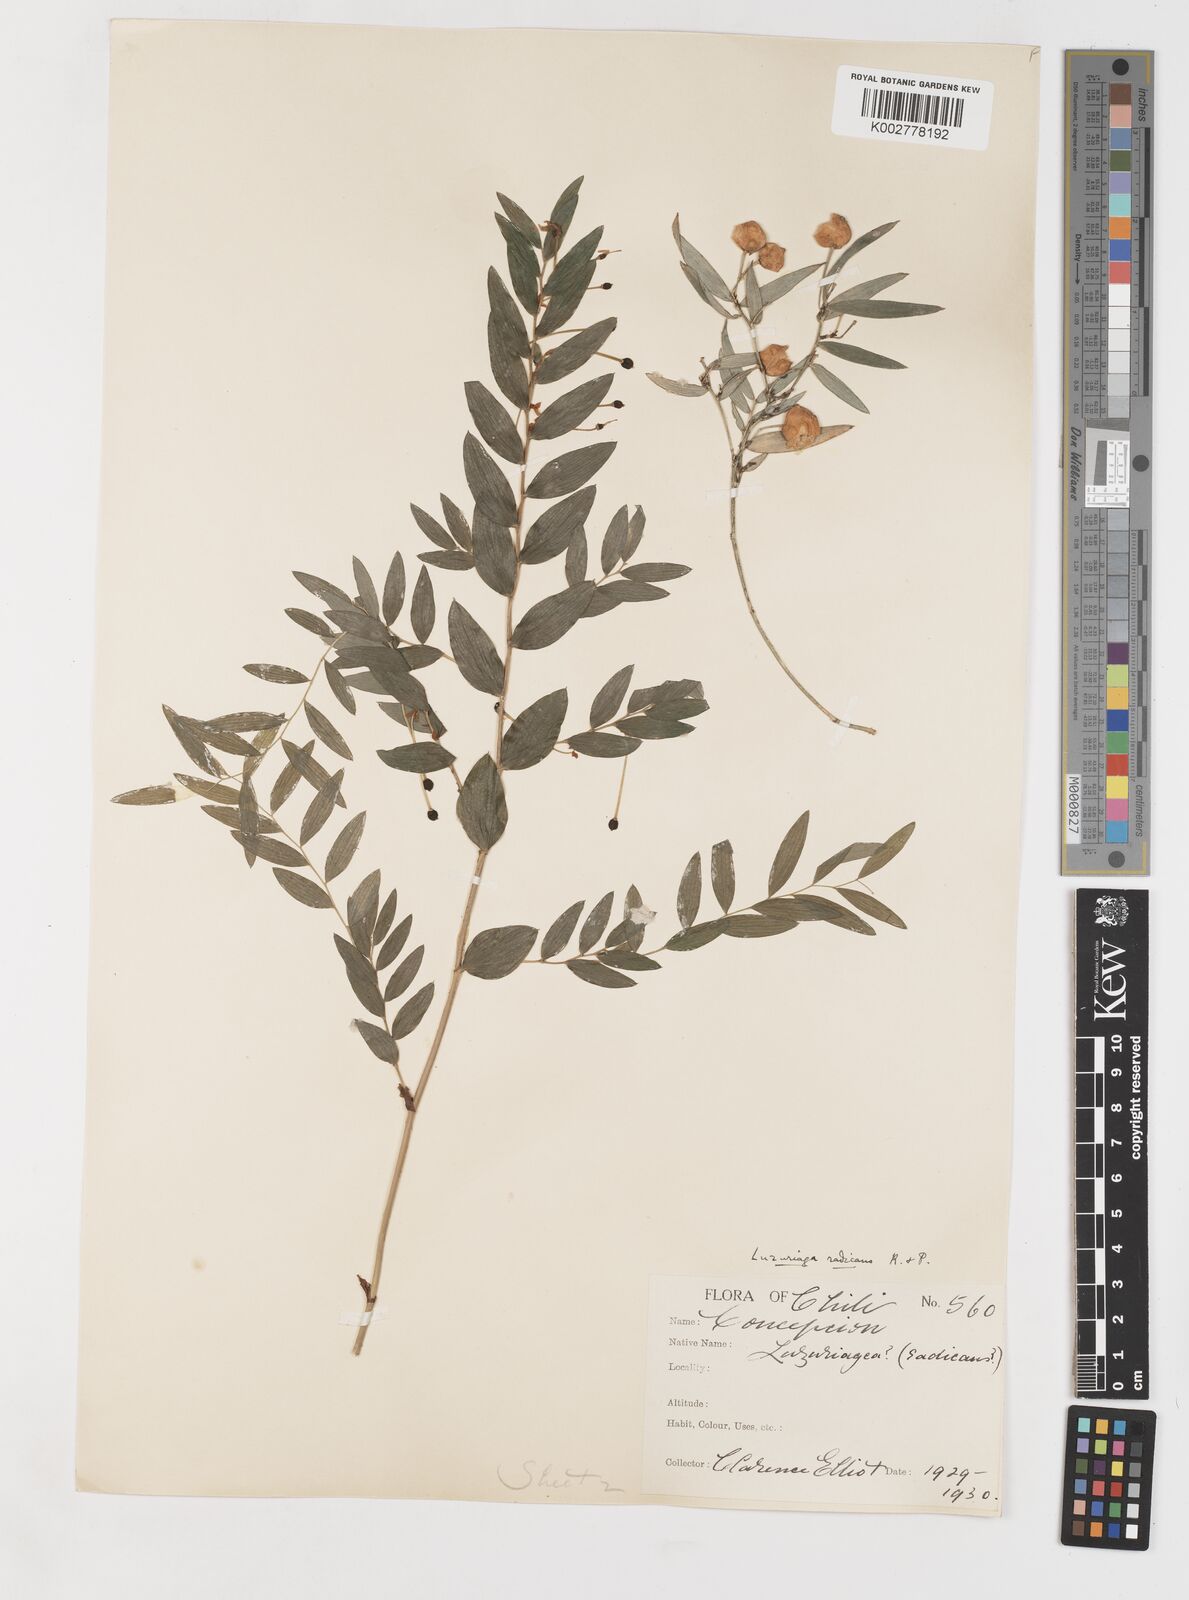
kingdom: Plantae
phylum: Tracheophyta
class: Liliopsida
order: Liliales
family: Alstroemeriaceae
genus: Luzuriaga
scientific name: Luzuriaga radicans
